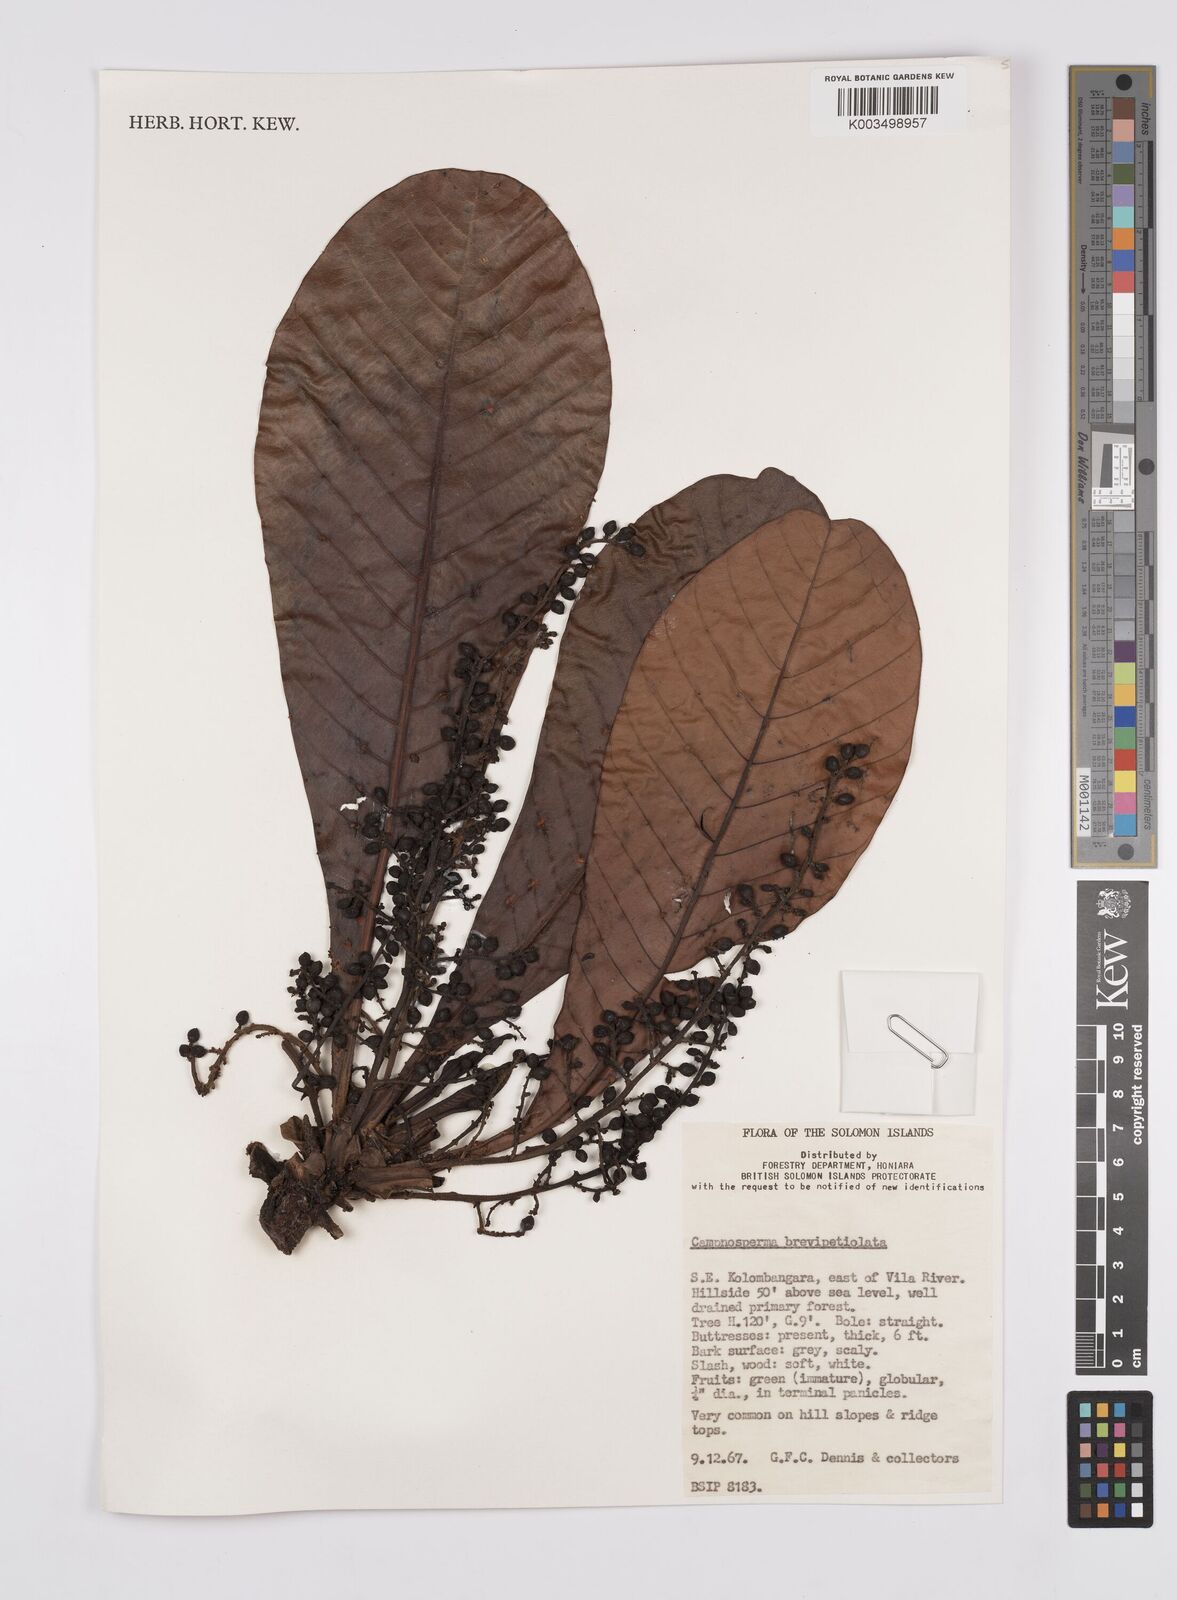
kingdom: Plantae
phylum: Tracheophyta
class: Magnoliopsida
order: Sapindales
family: Anacardiaceae
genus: Campnosperma
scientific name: Campnosperma brevipetiolatum
